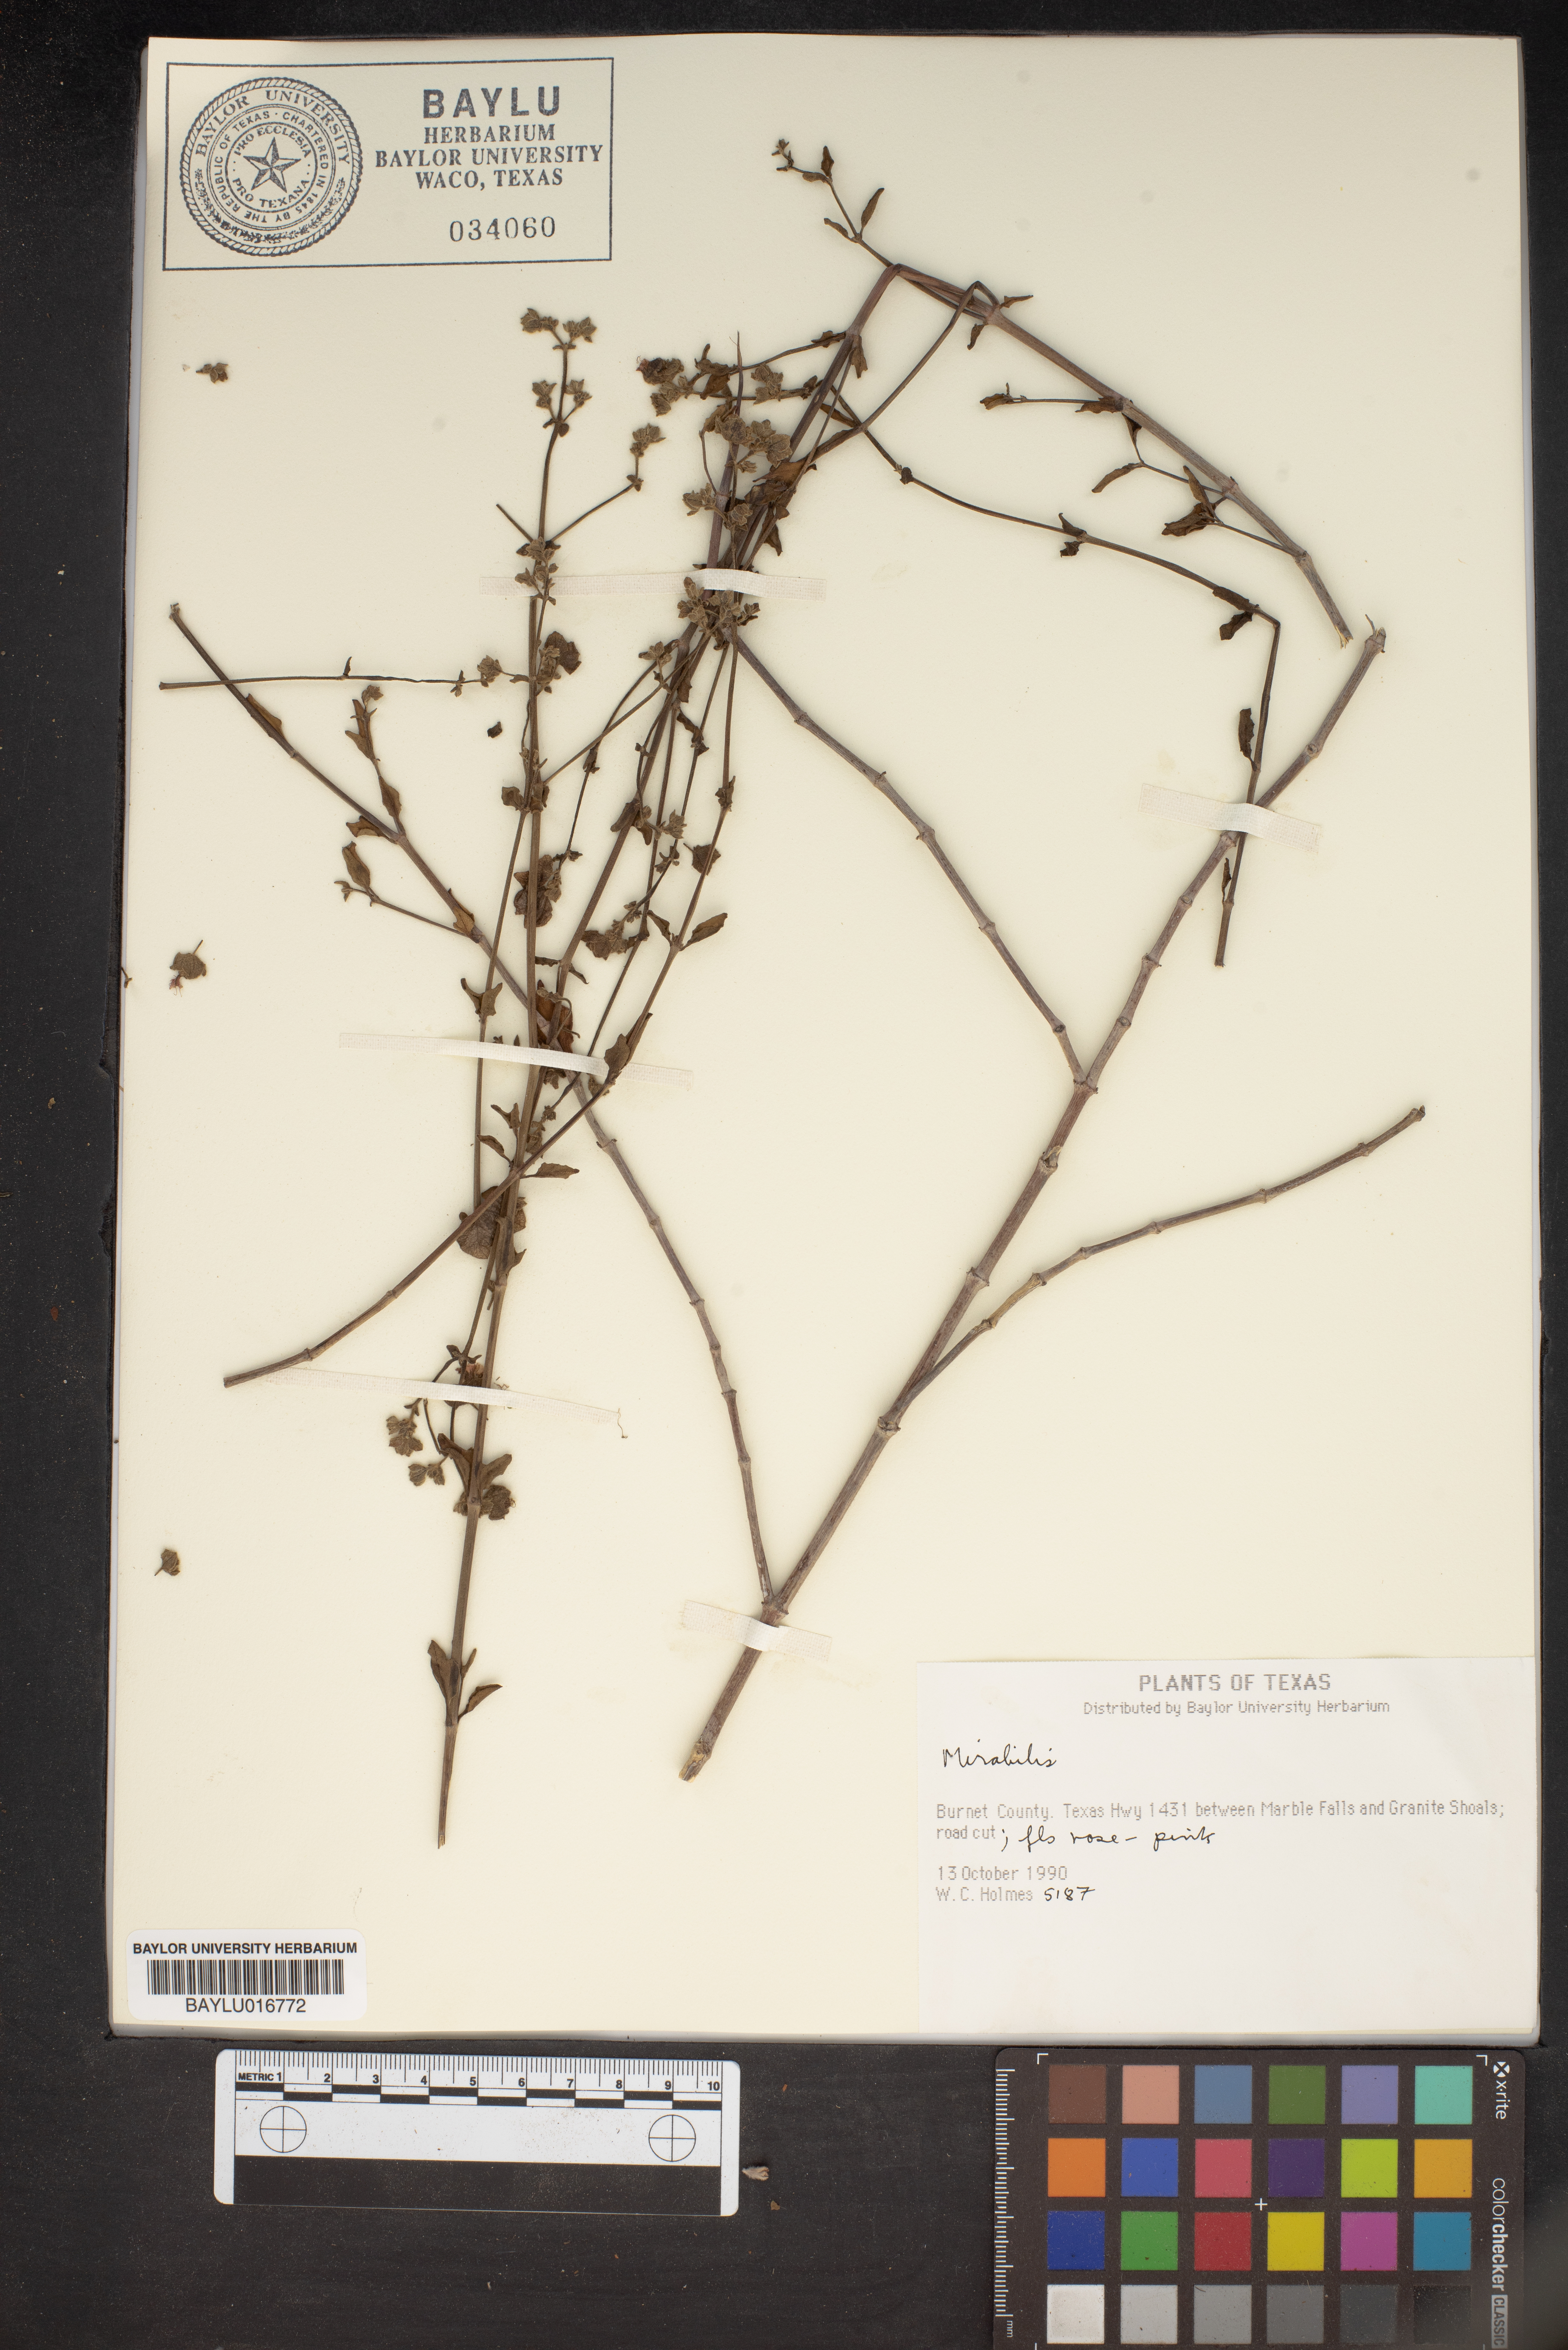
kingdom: Plantae
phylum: Tracheophyta
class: Magnoliopsida
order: Caryophyllales
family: Nyctaginaceae
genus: Mirabilis
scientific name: Mirabilis
